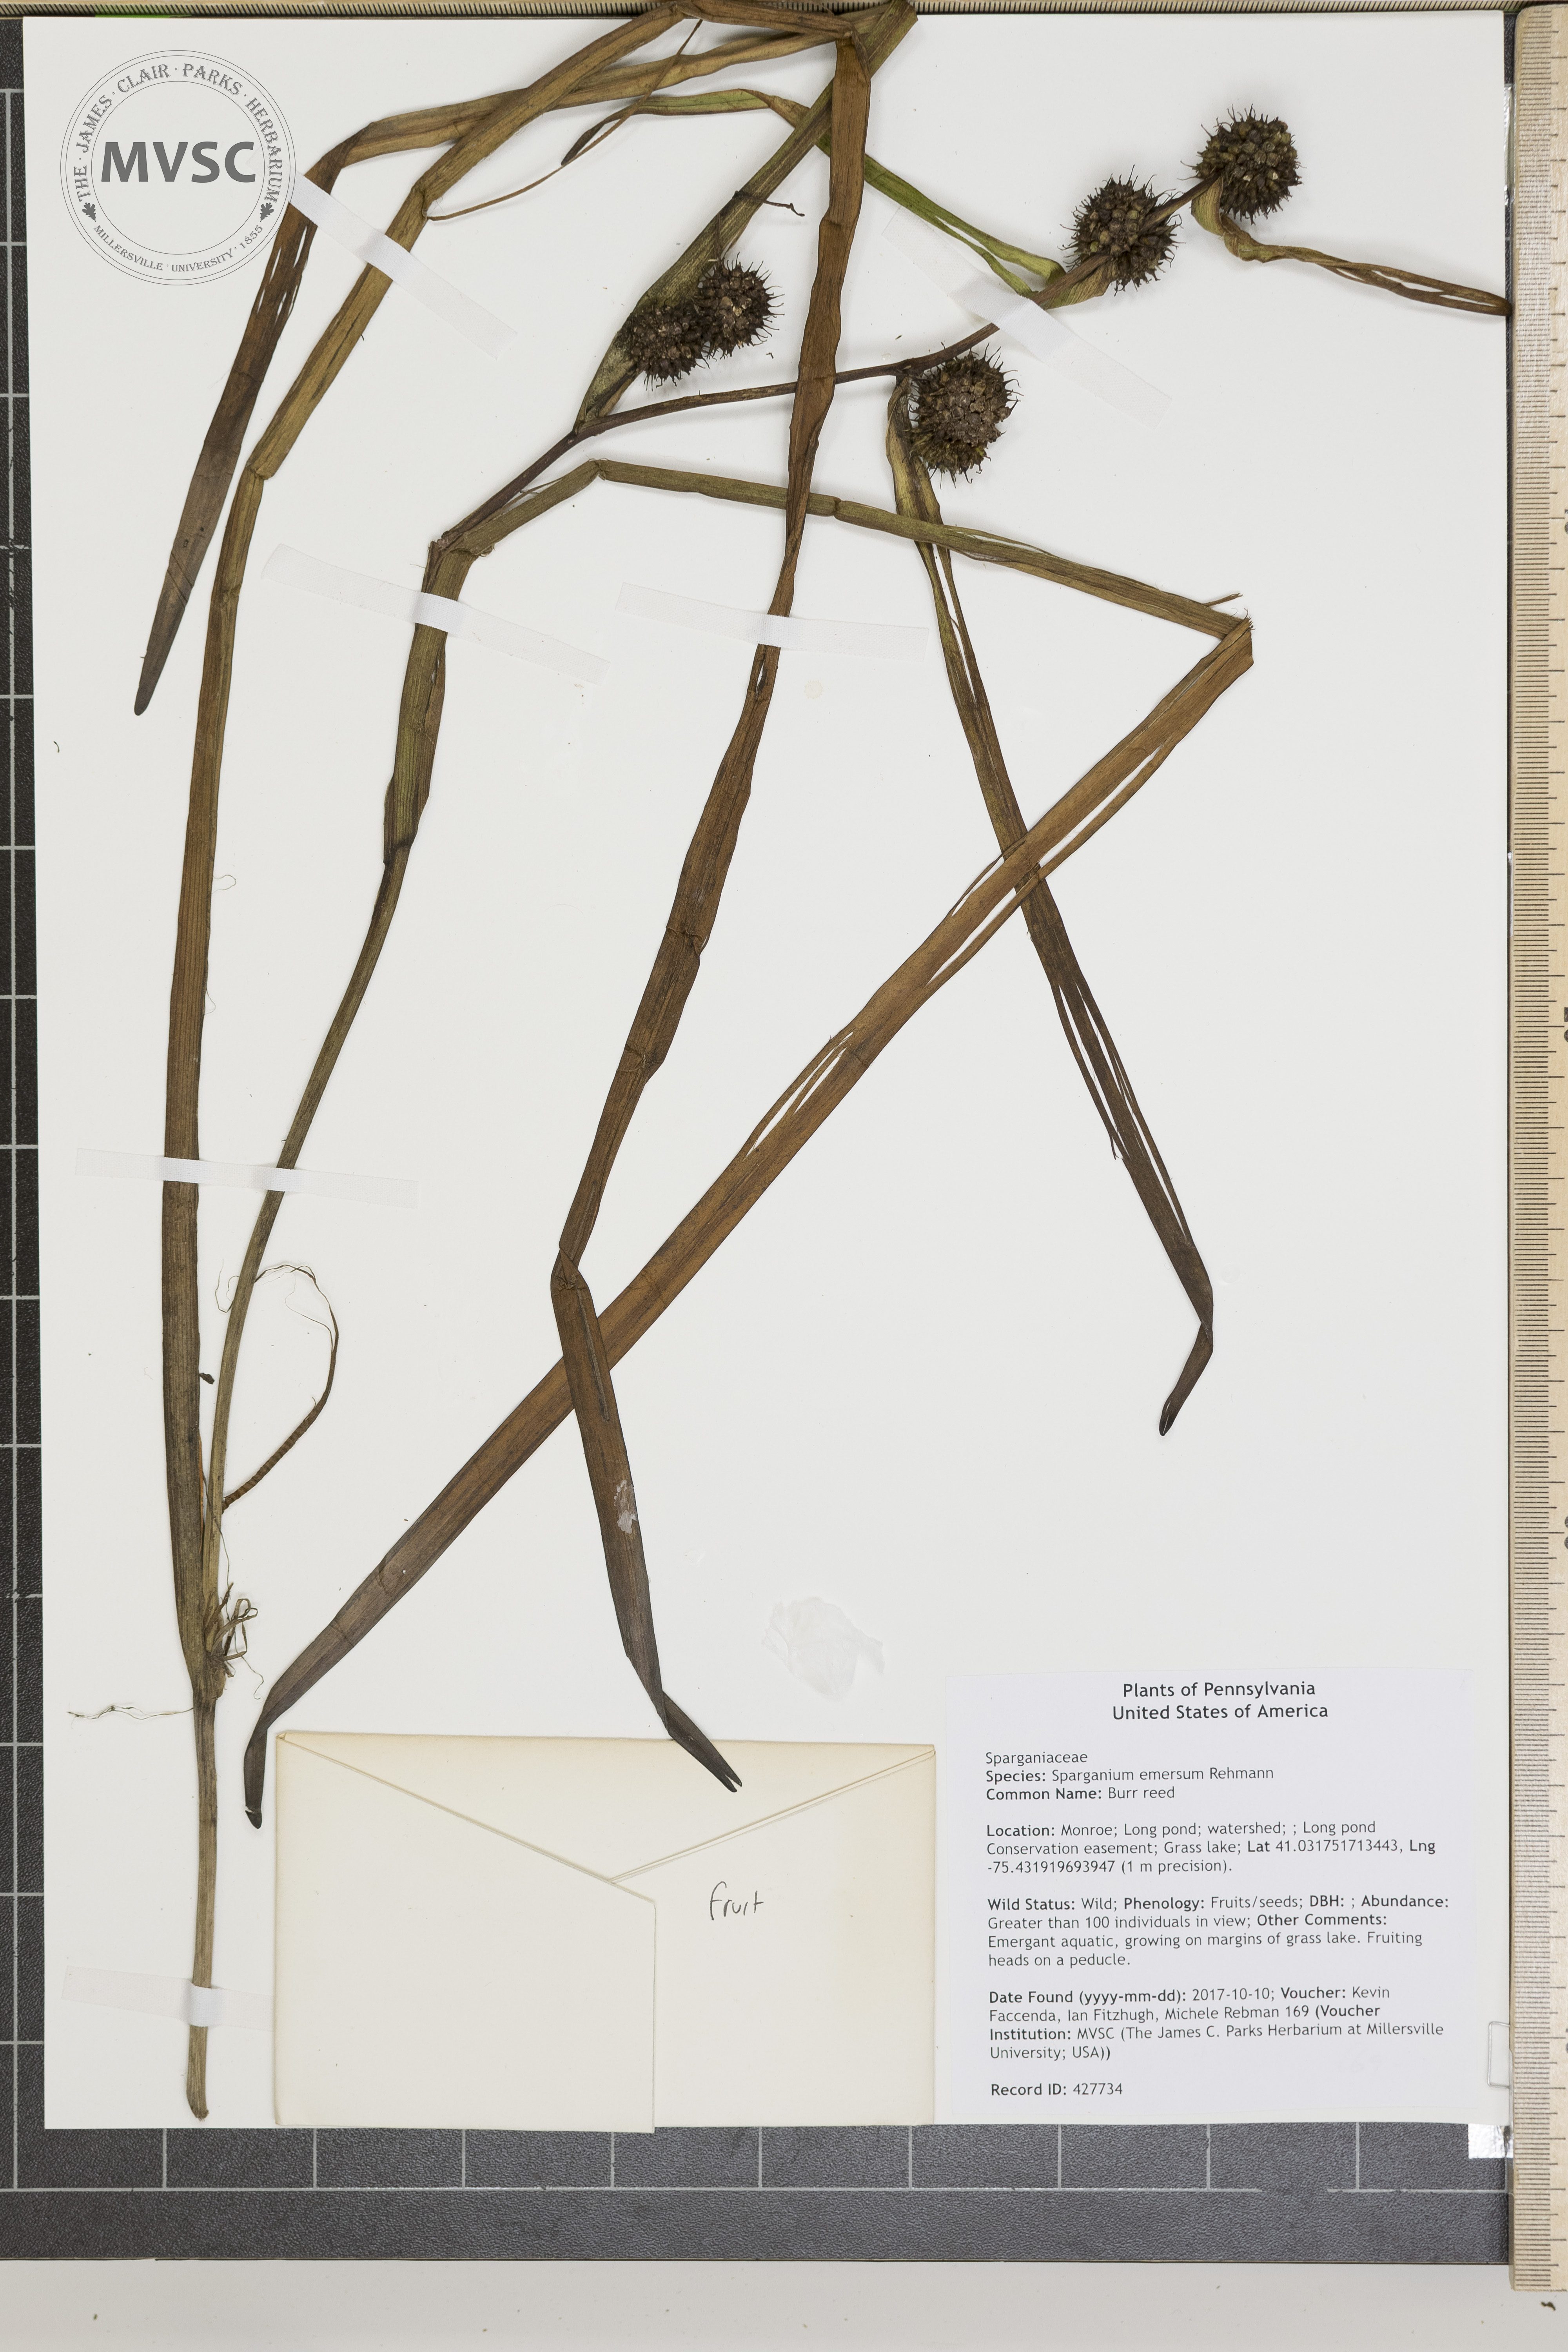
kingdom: Plantae
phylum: Tracheophyta
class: Liliopsida
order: Poales
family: Typhaceae
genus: Sparganium
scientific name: Sparganium americanum
